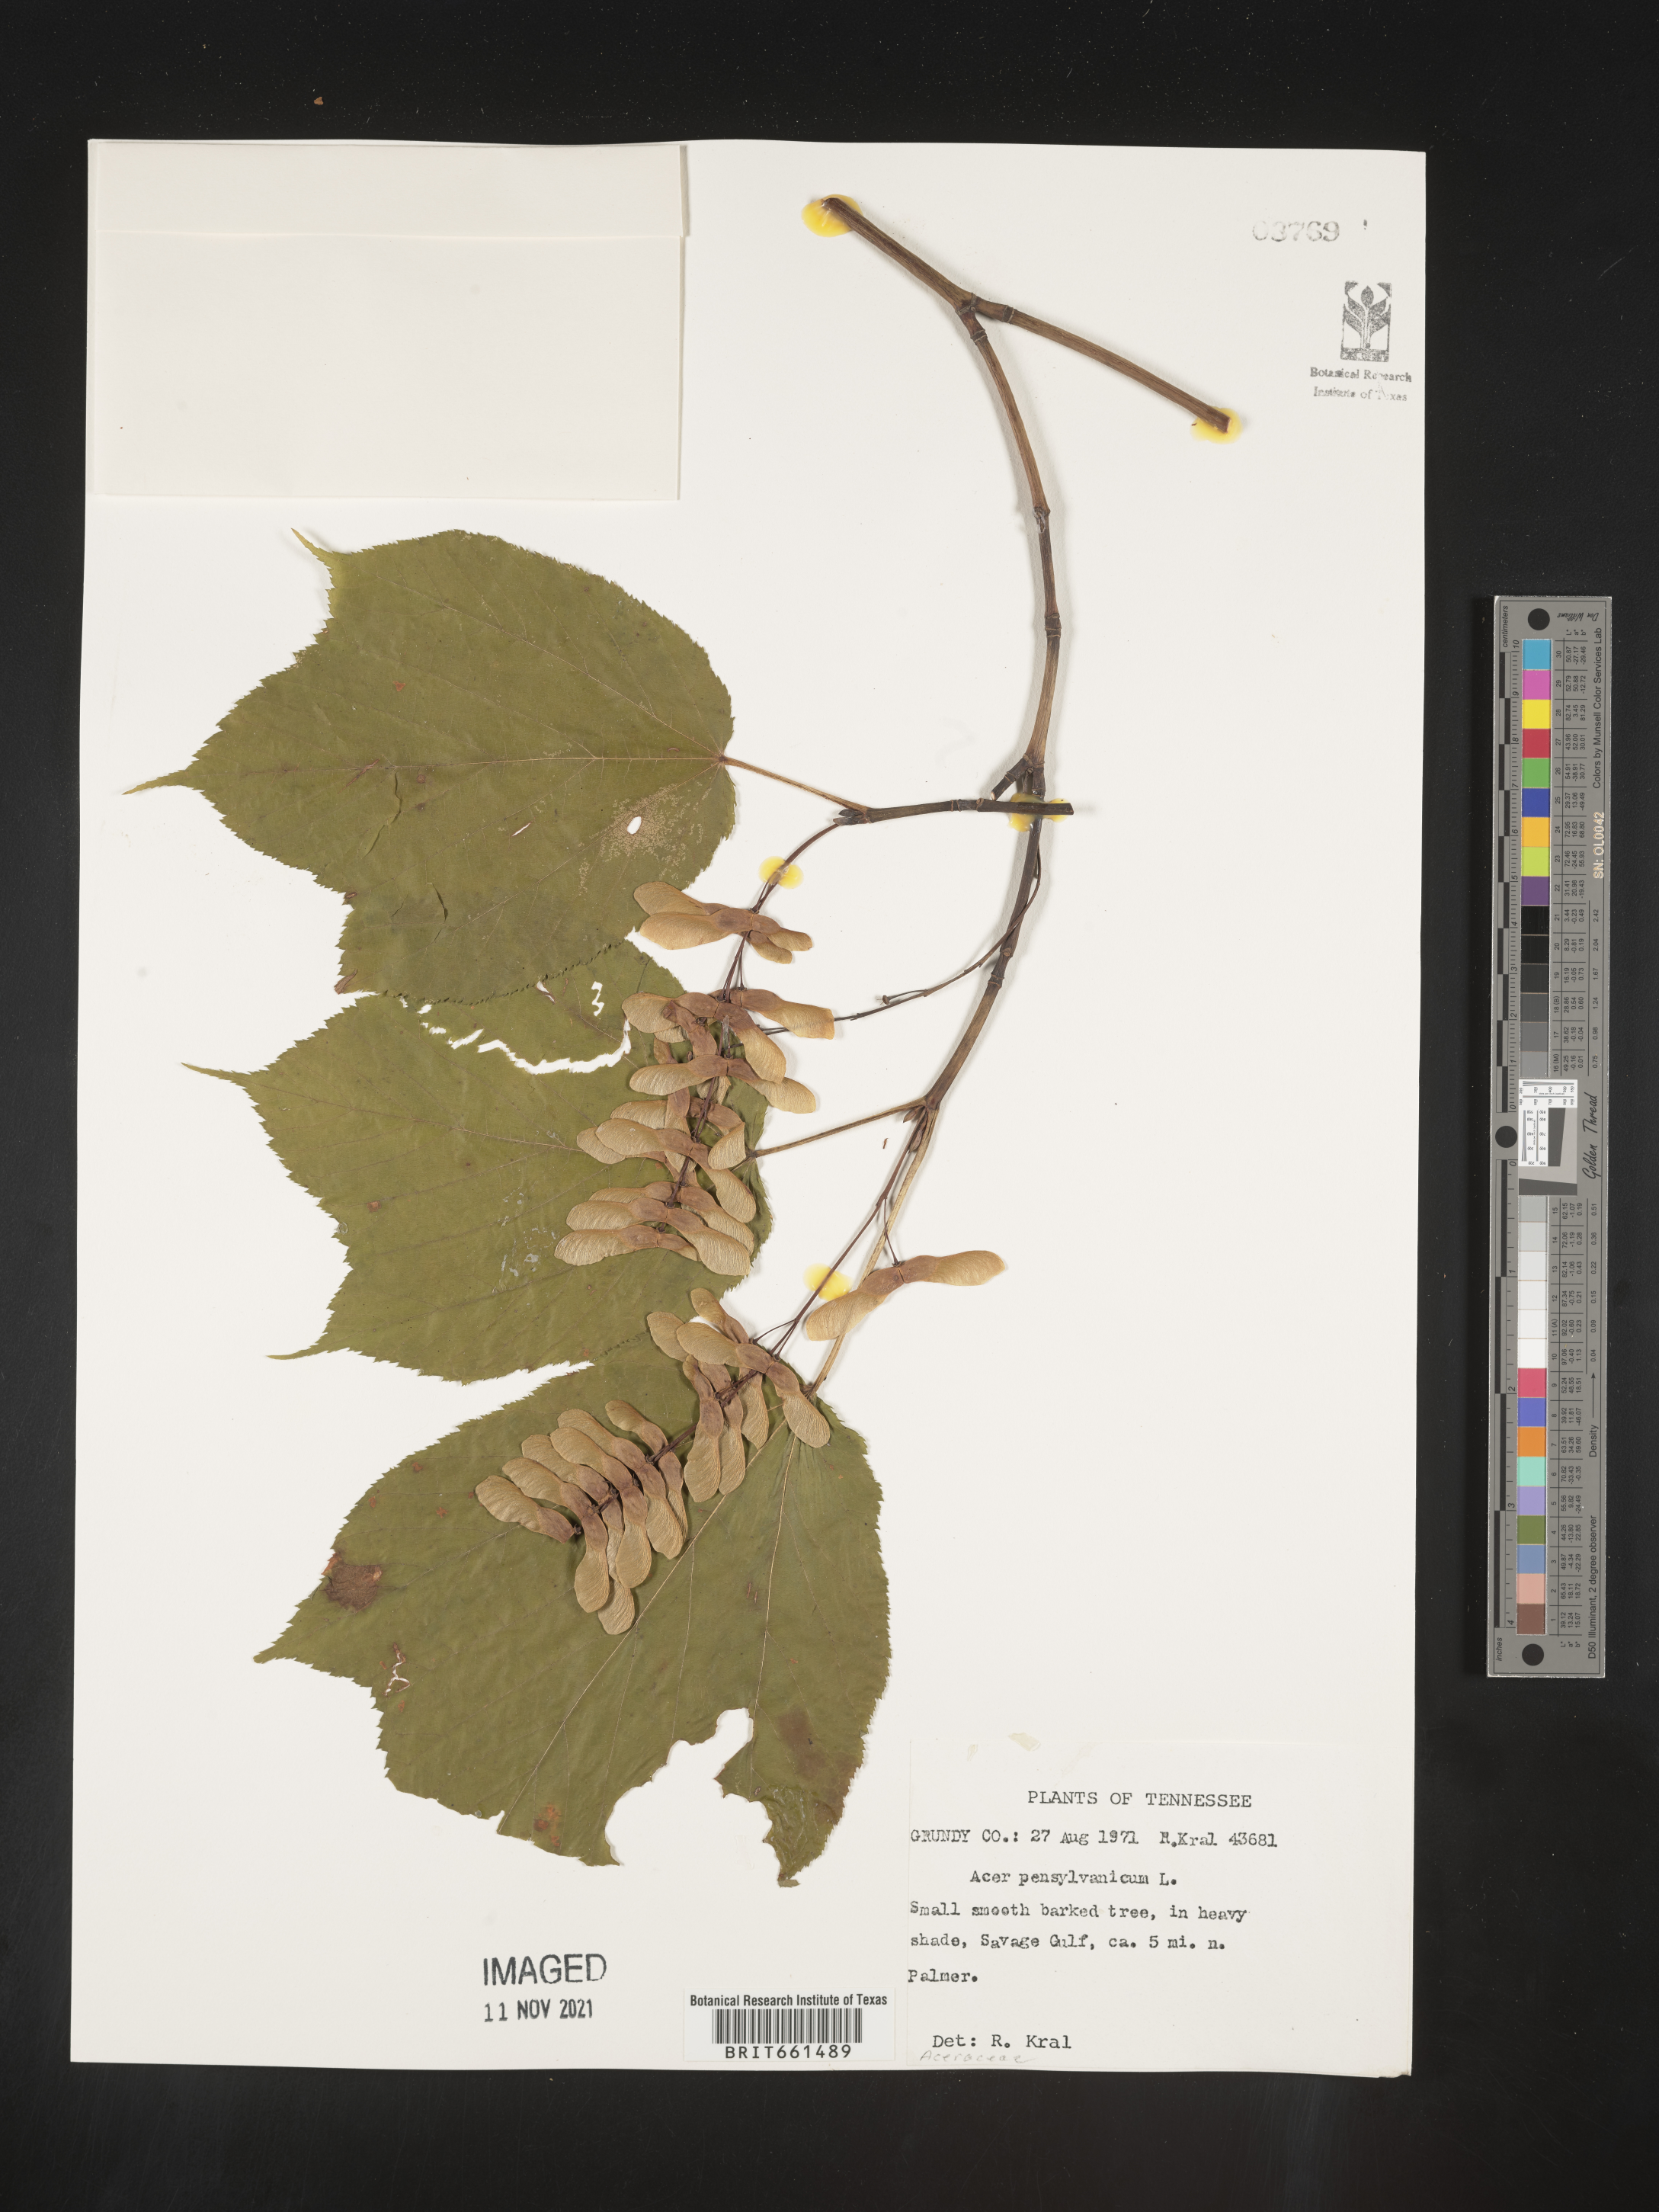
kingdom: Plantae
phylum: Tracheophyta
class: Magnoliopsida
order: Sapindales
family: Sapindaceae
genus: Acer
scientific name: Acer pensylvanicum
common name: Moosewood
